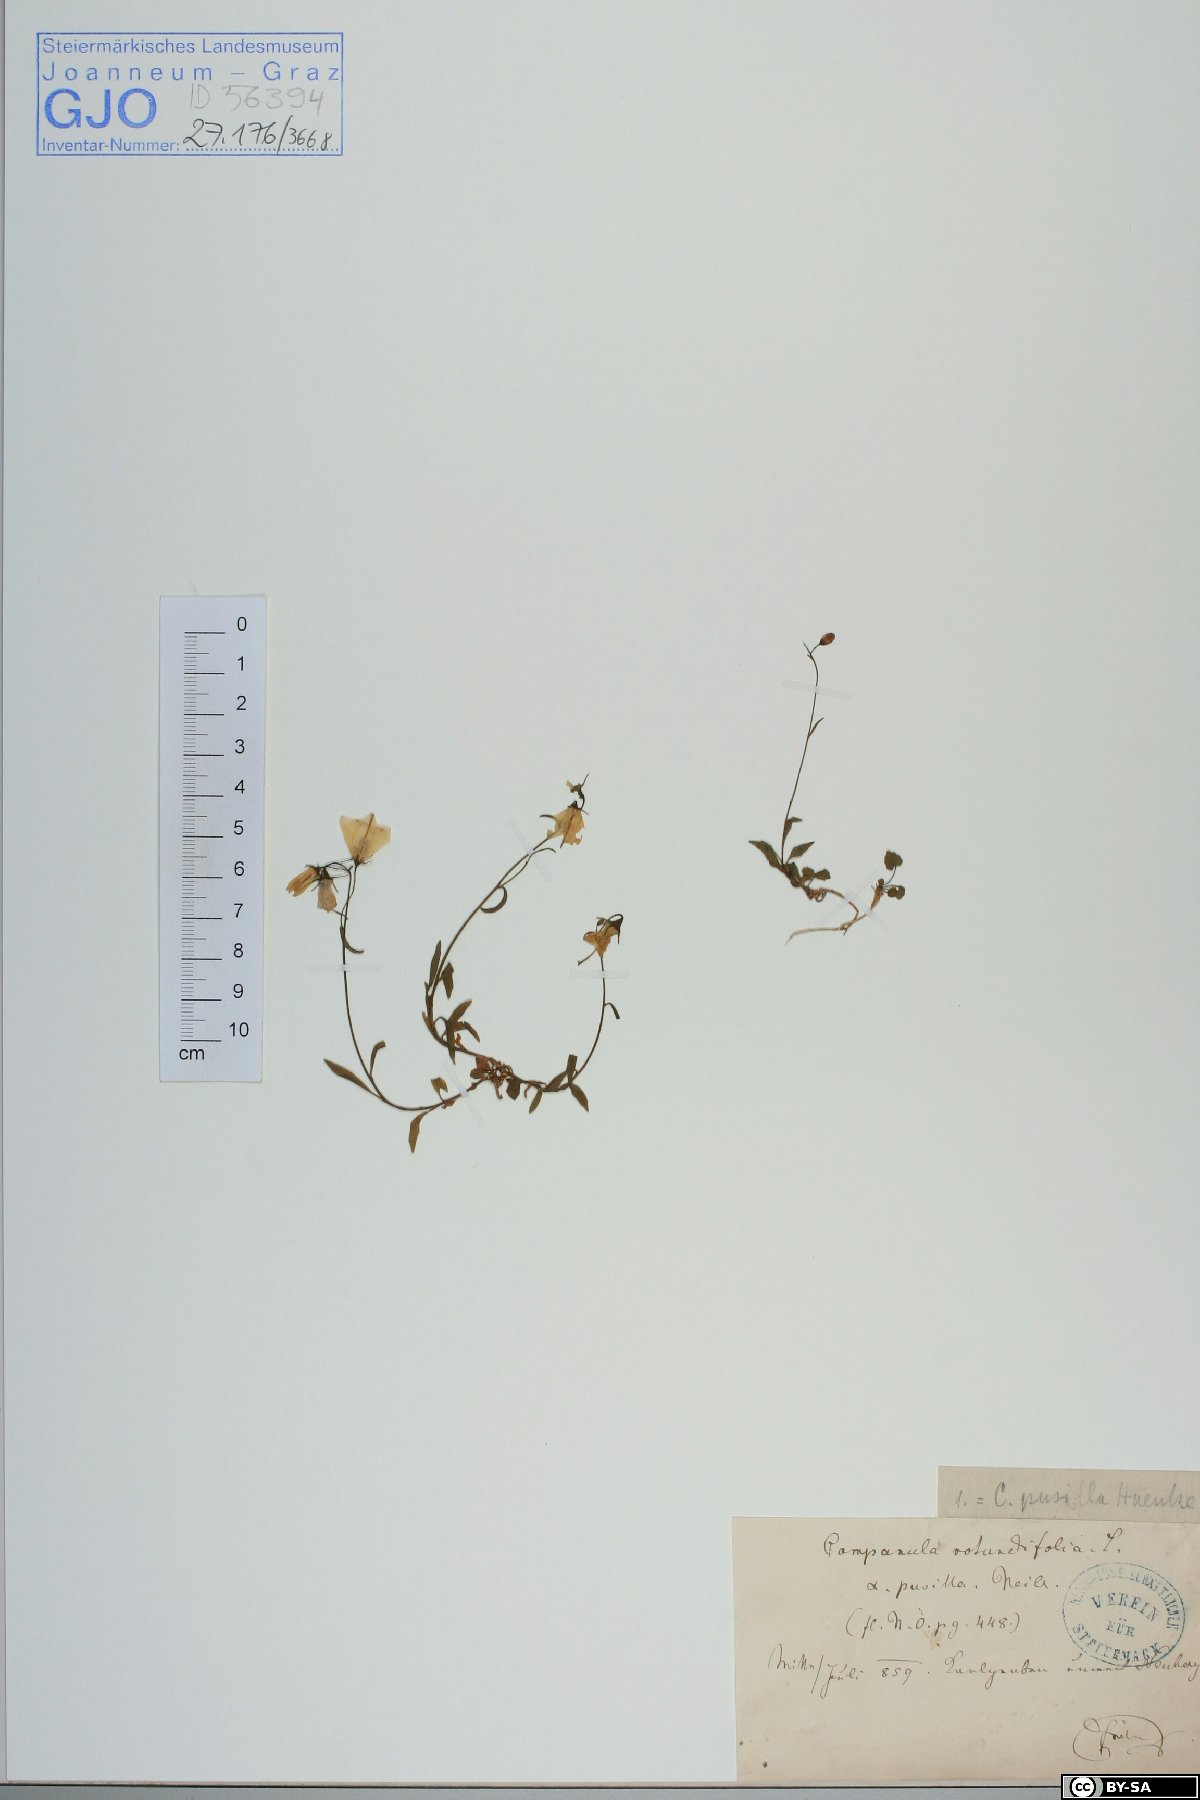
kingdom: Plantae
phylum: Tracheophyta
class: Magnoliopsida
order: Asterales
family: Campanulaceae
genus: Campanula
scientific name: Campanula cochleariifolia
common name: Fairies'-thimbles
